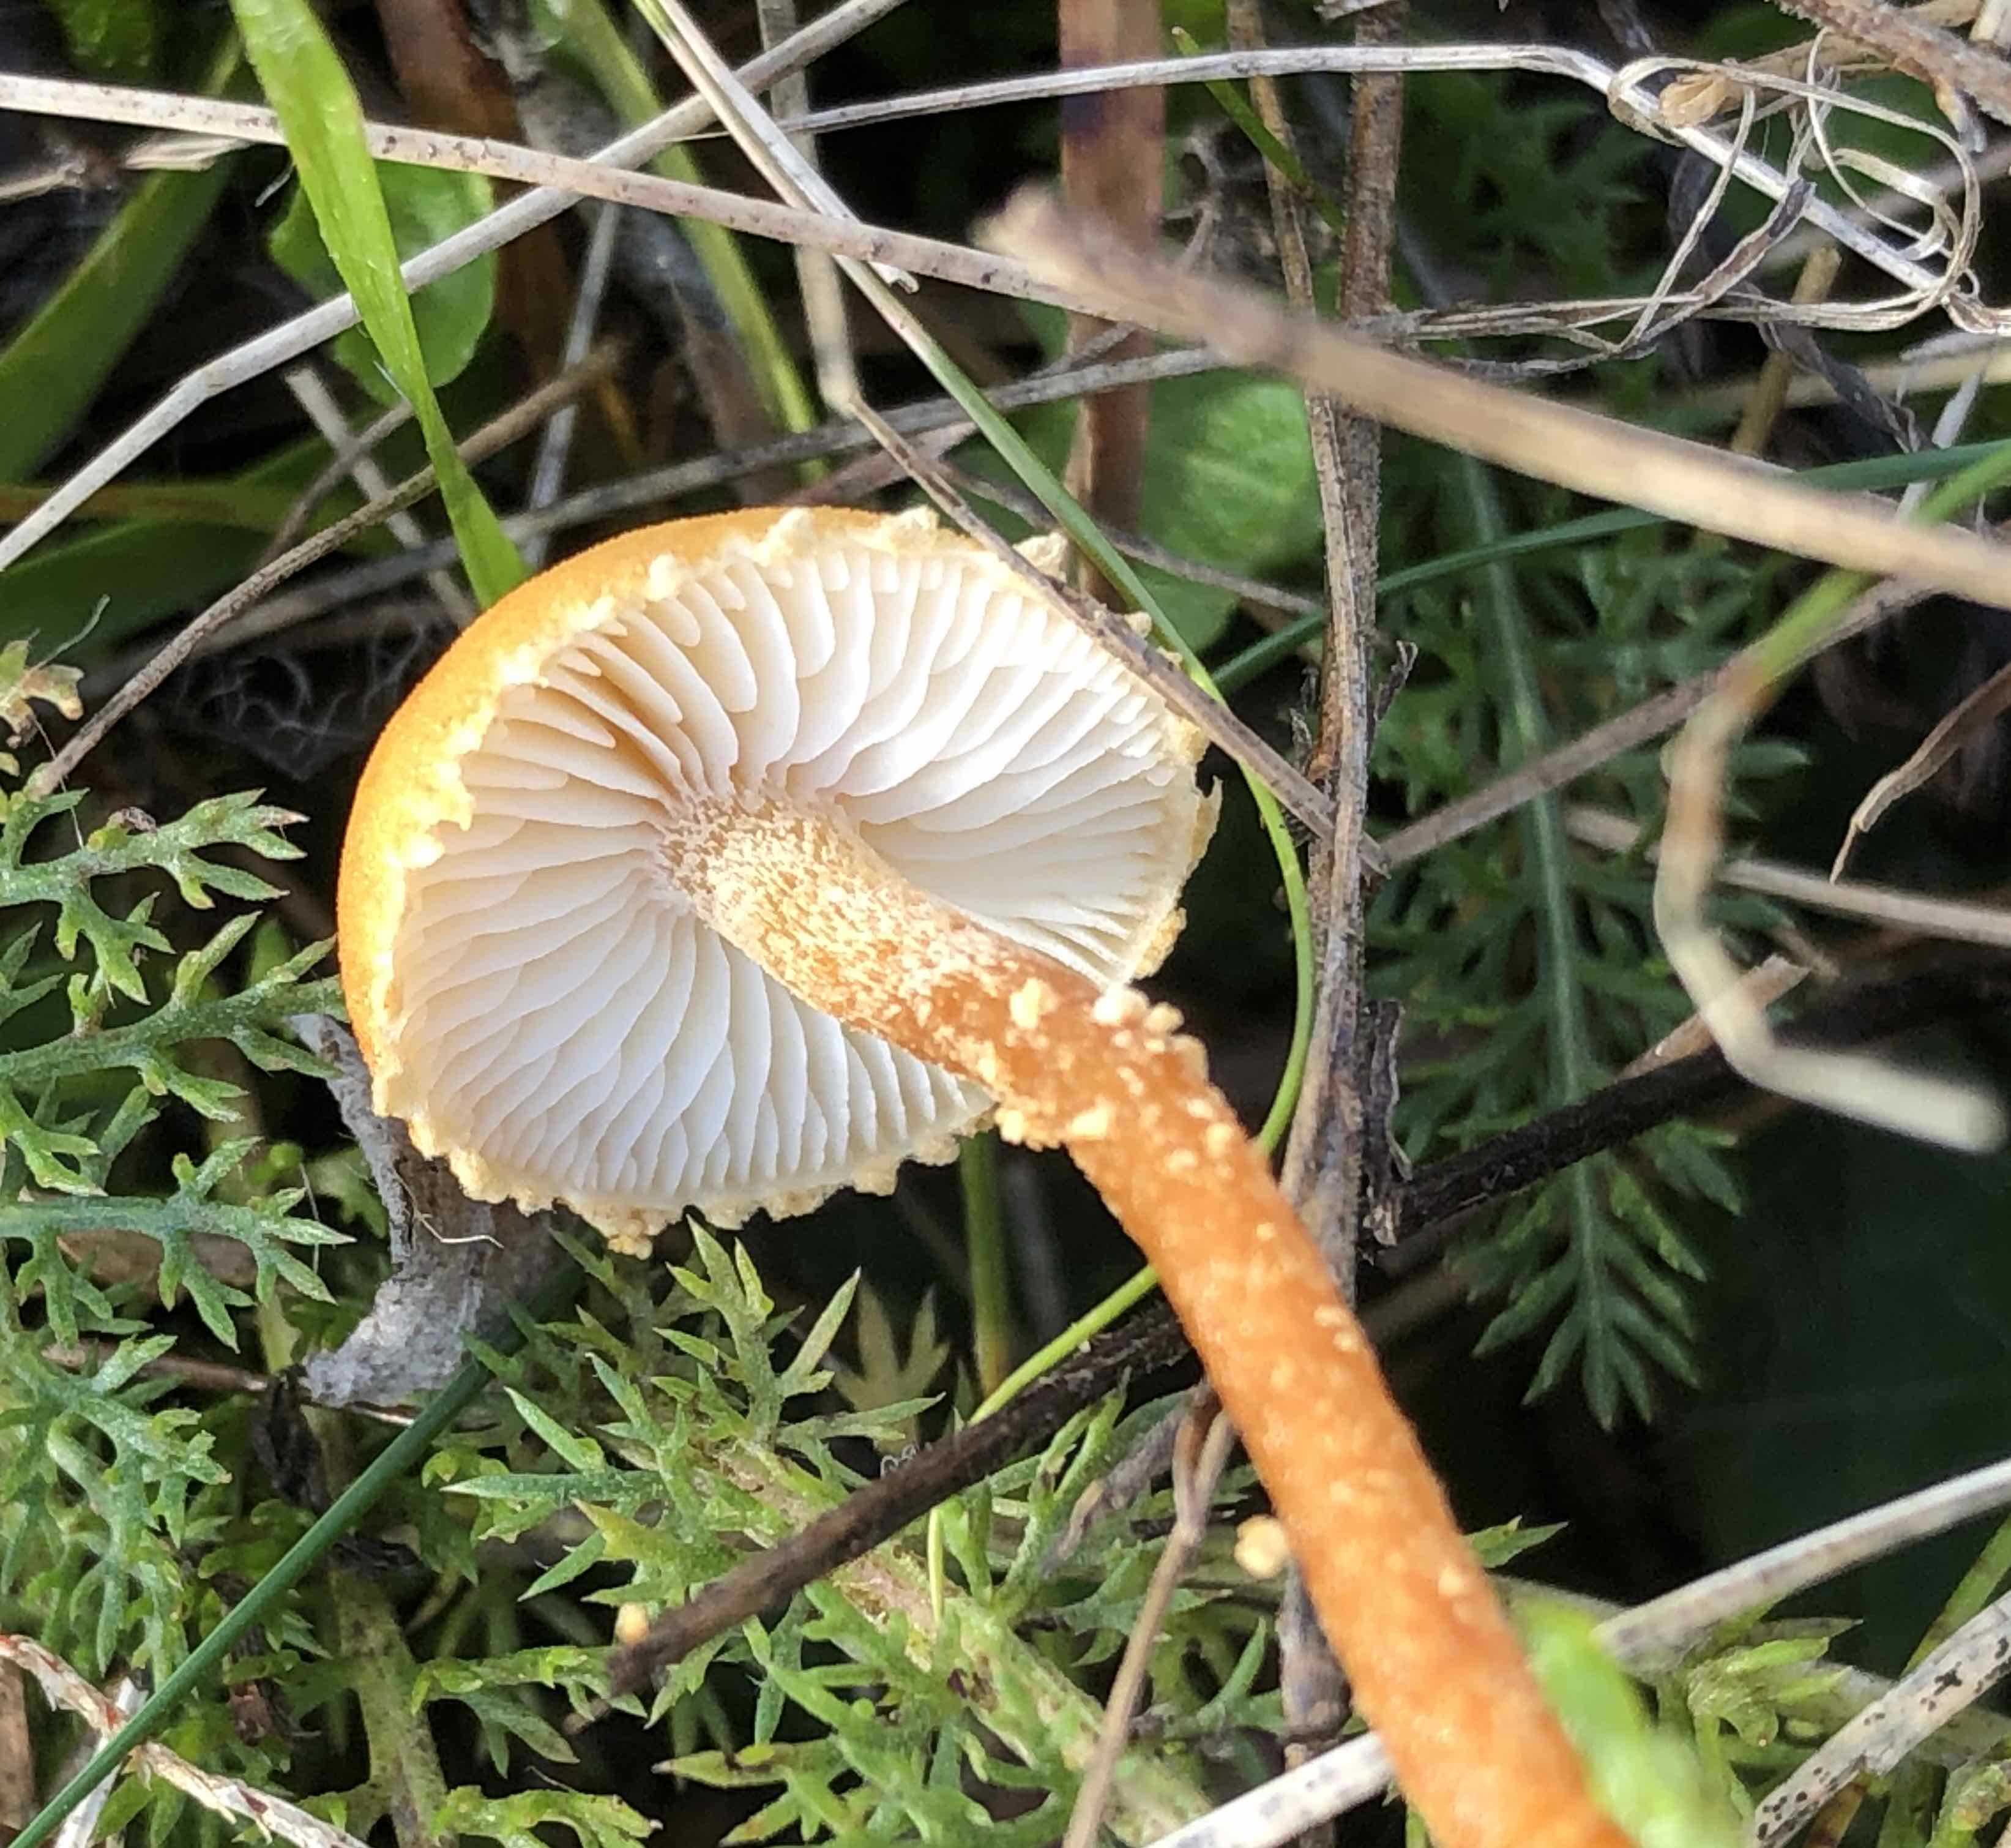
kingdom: Fungi
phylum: Basidiomycota
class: Agaricomycetes
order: Agaricales
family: Tricholomataceae
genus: Cystoderma
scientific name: Cystoderma amianthinum
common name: okkergul grynhat
